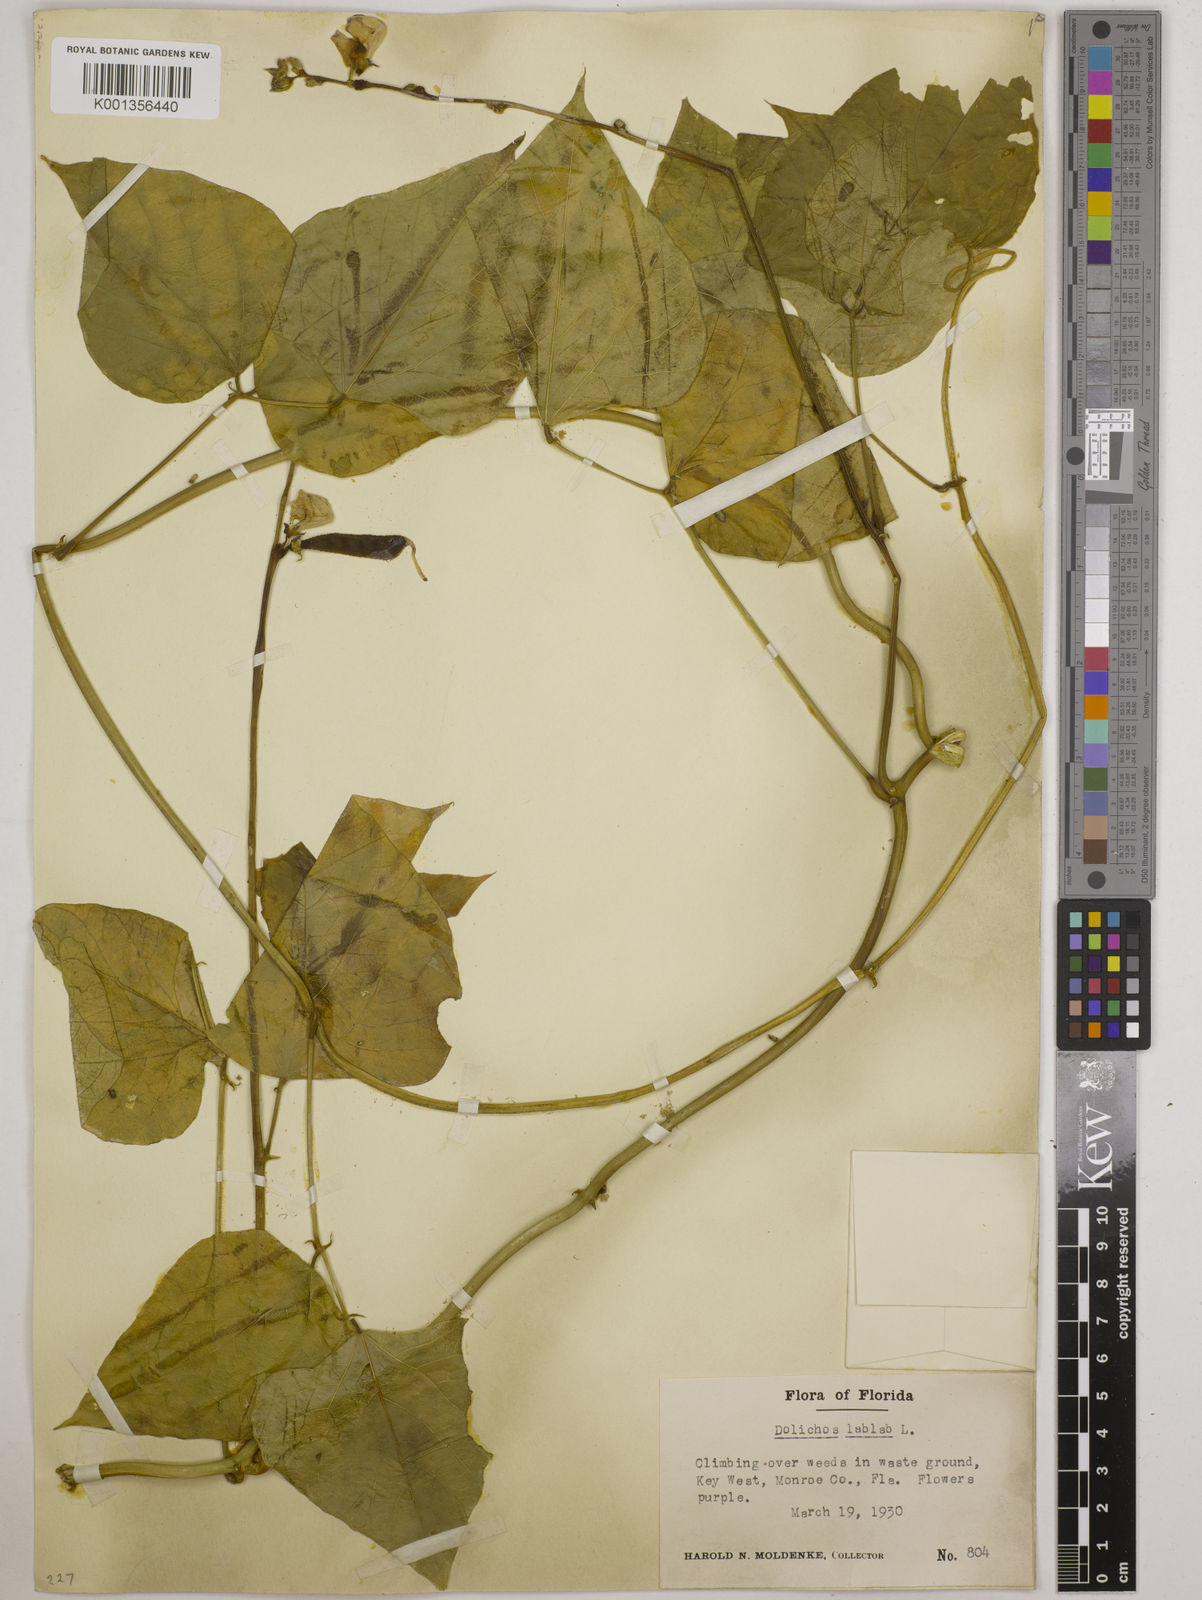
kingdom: Plantae
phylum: Tracheophyta
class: Magnoliopsida
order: Fabales
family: Fabaceae
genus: Lablab
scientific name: Lablab purpureus
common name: Lablab-bean
